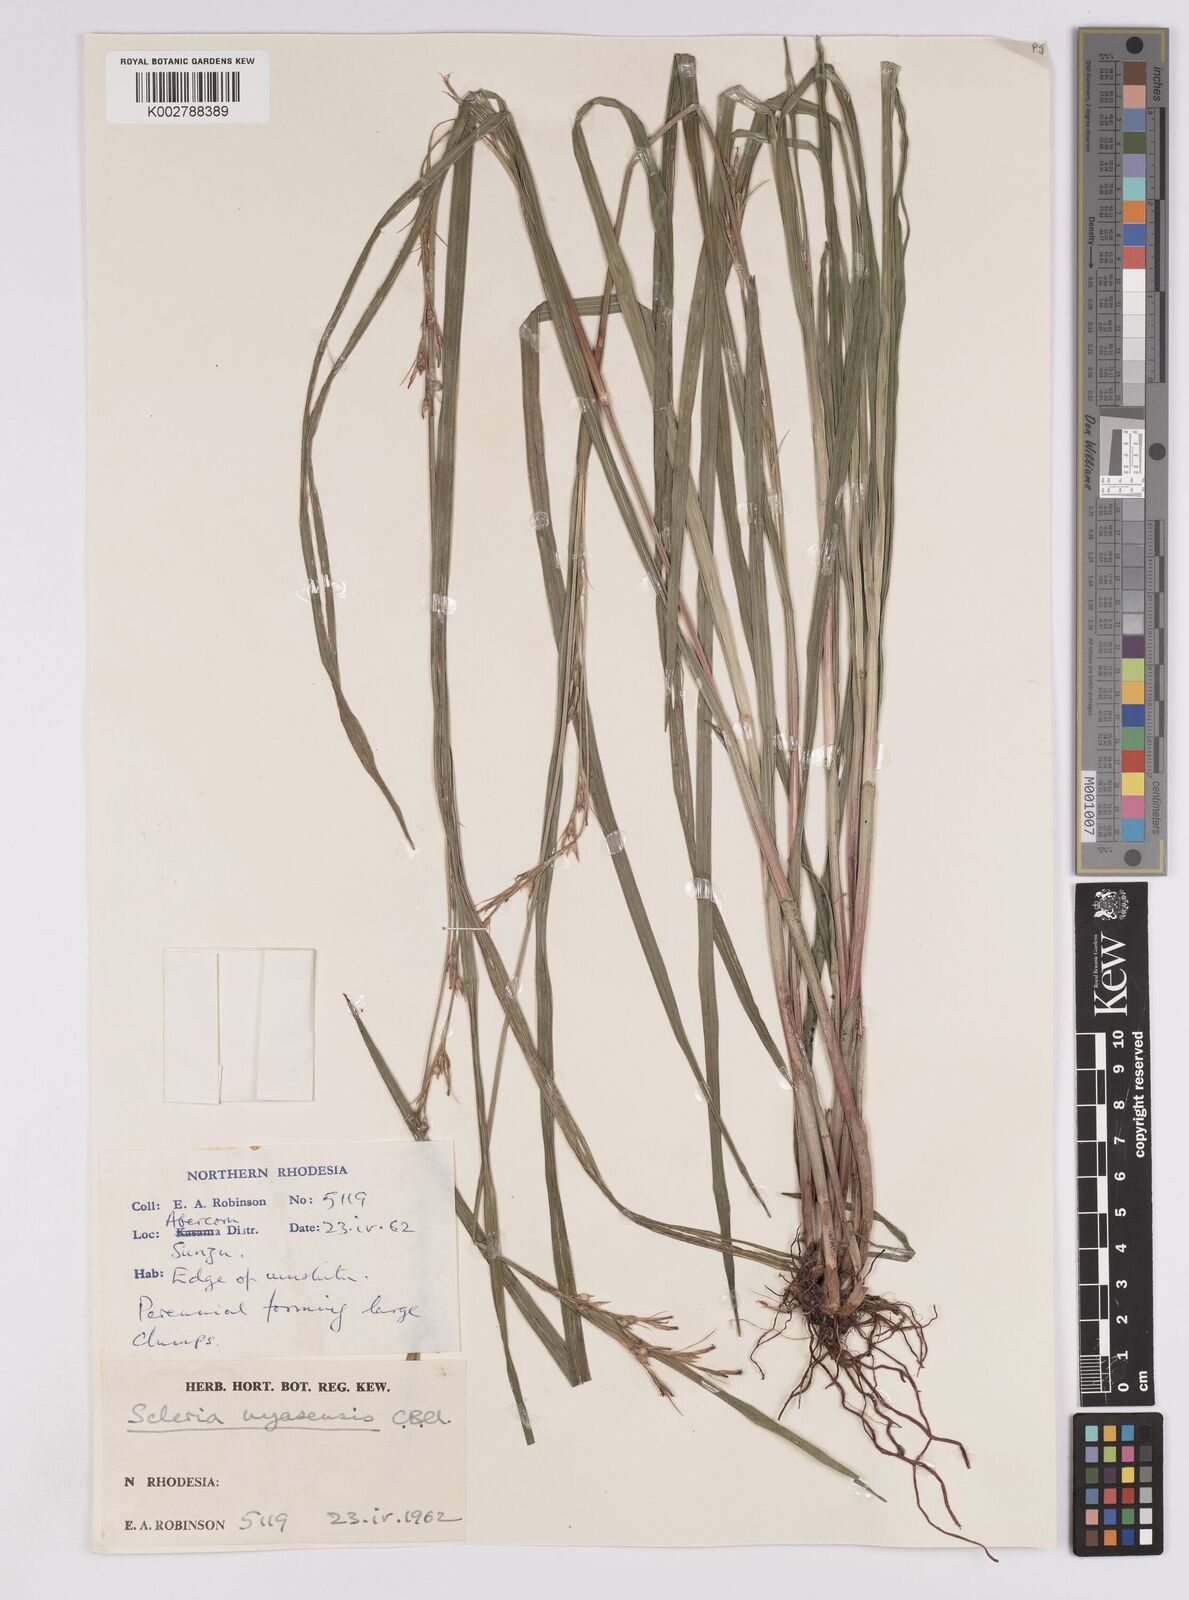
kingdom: Plantae
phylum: Tracheophyta
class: Liliopsida
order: Poales
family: Cyperaceae
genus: Scleria
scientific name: Scleria nyasensis
